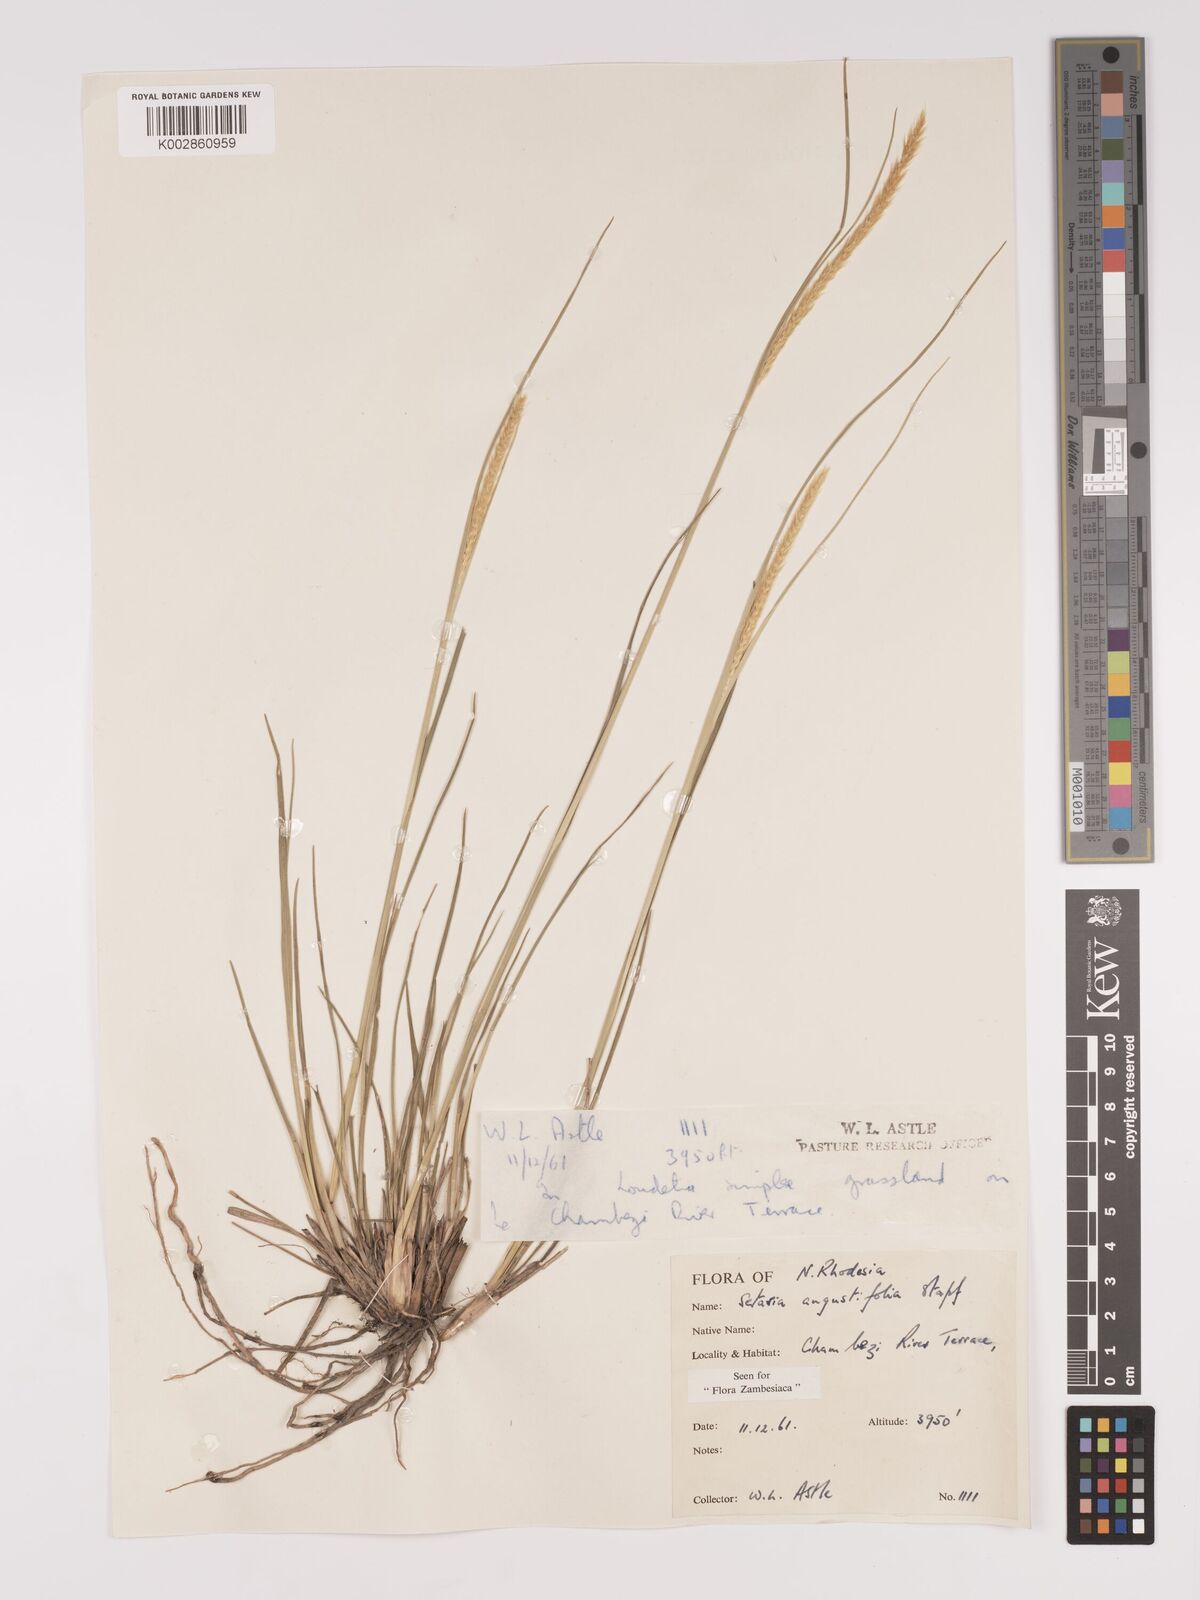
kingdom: Plantae
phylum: Tracheophyta
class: Liliopsida
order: Poales
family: Poaceae
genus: Setaria
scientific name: Setaria
